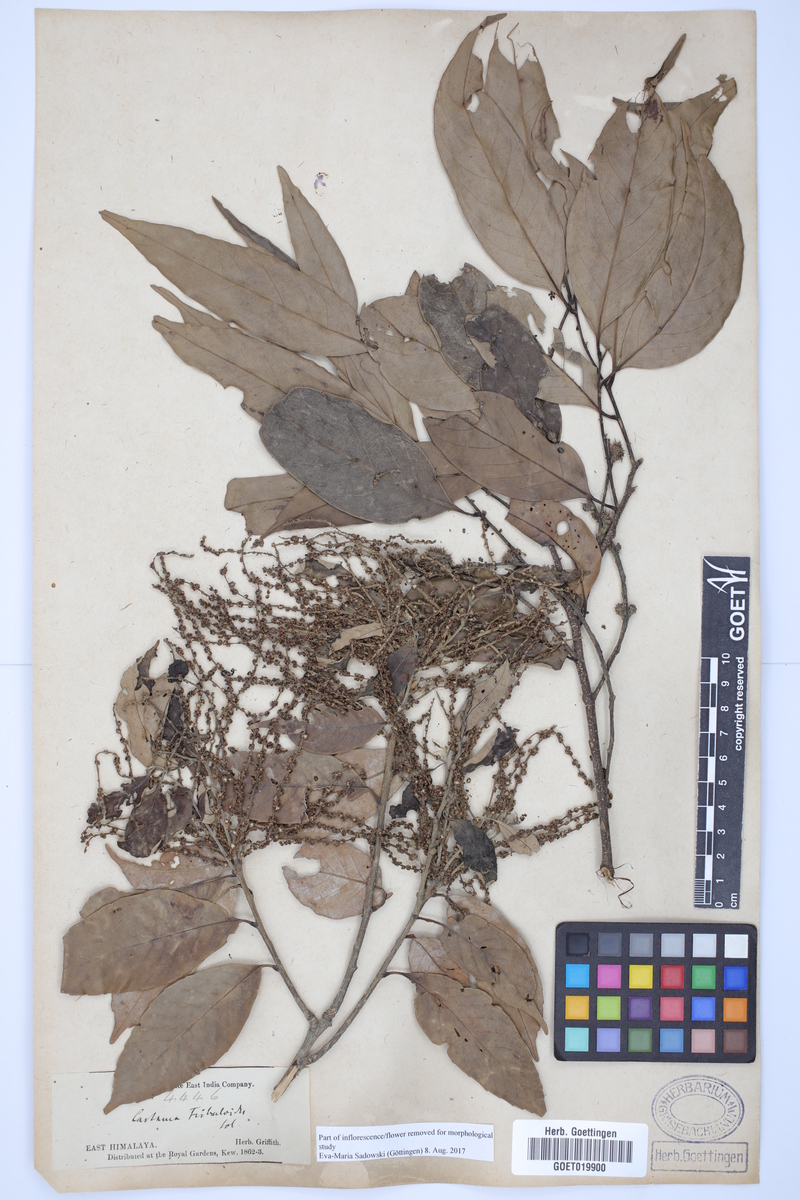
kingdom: Plantae
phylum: Tracheophyta
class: Magnoliopsida
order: Fagales
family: Fagaceae
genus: Castanopsis
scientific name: Castanopsis tribuloides
